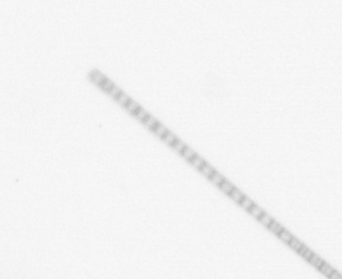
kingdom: Chromista
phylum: Ochrophyta
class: Bacillariophyceae
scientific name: Bacillariophyceae
